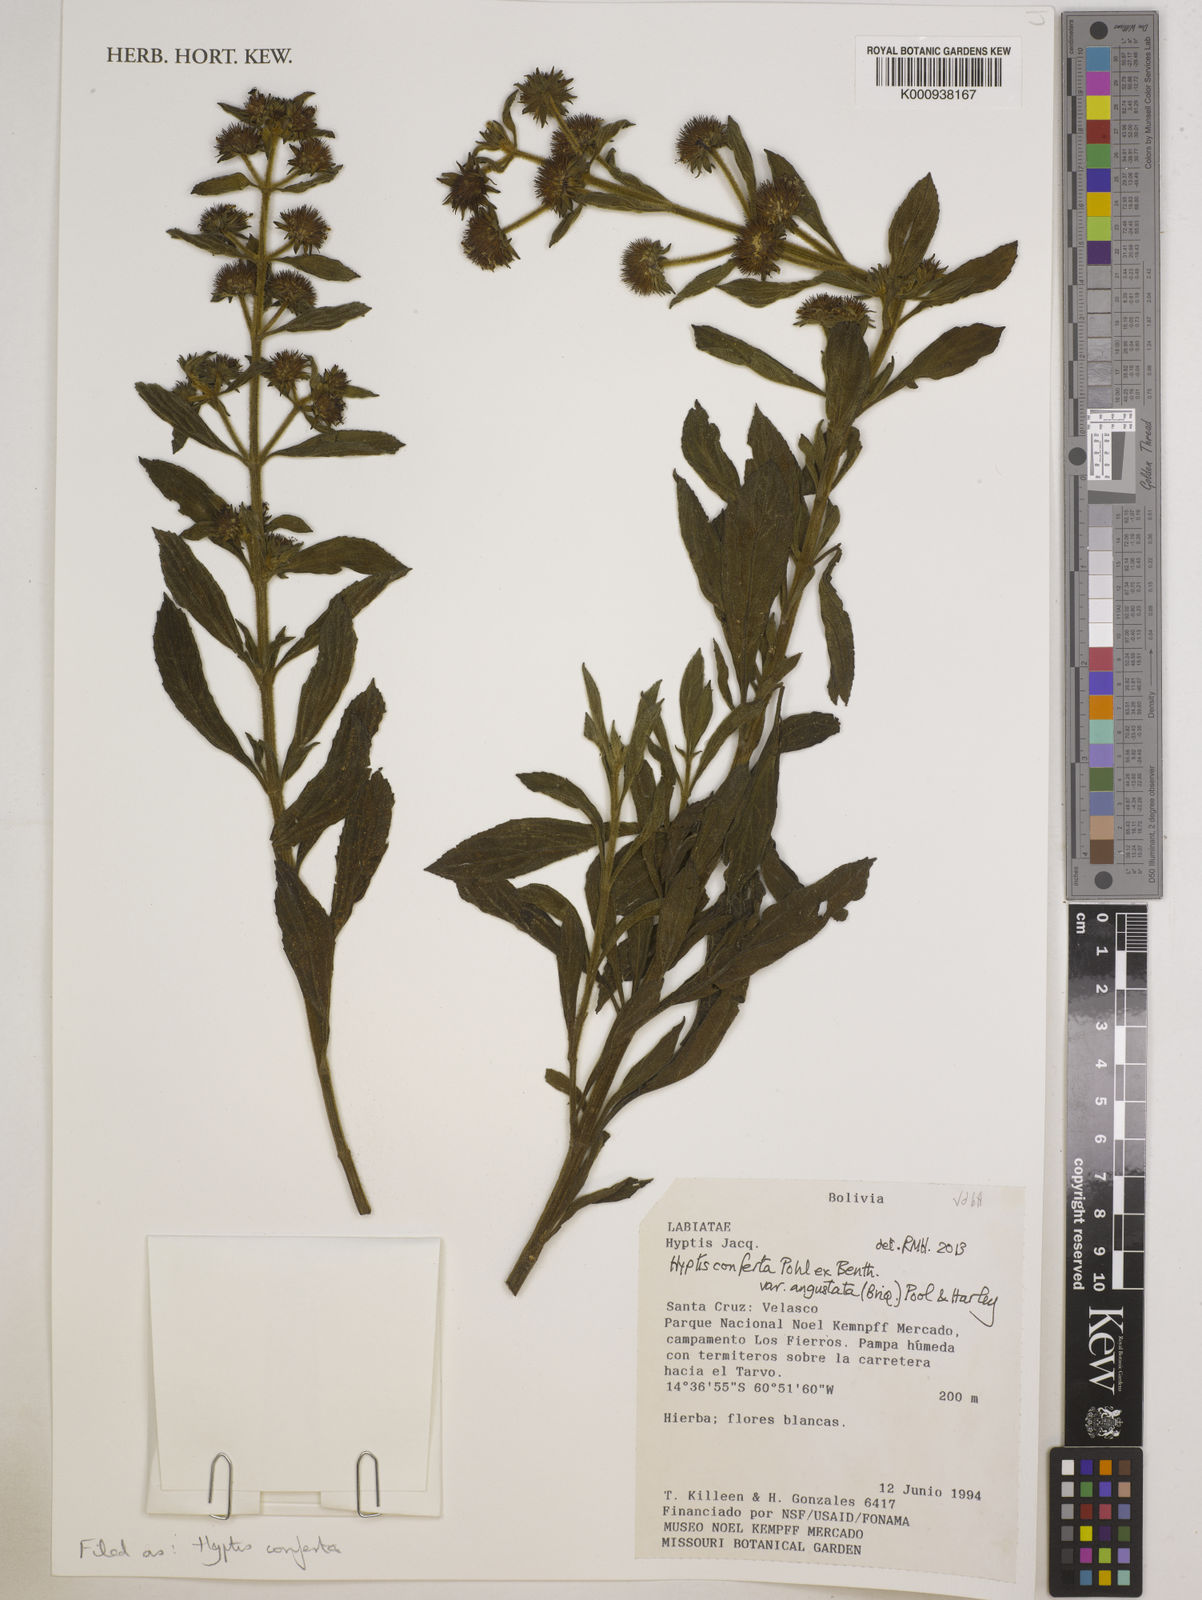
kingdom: Plantae
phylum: Tracheophyta
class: Magnoliopsida
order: Lamiales
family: Lamiaceae
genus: Hyptis
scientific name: Hyptis conferta
